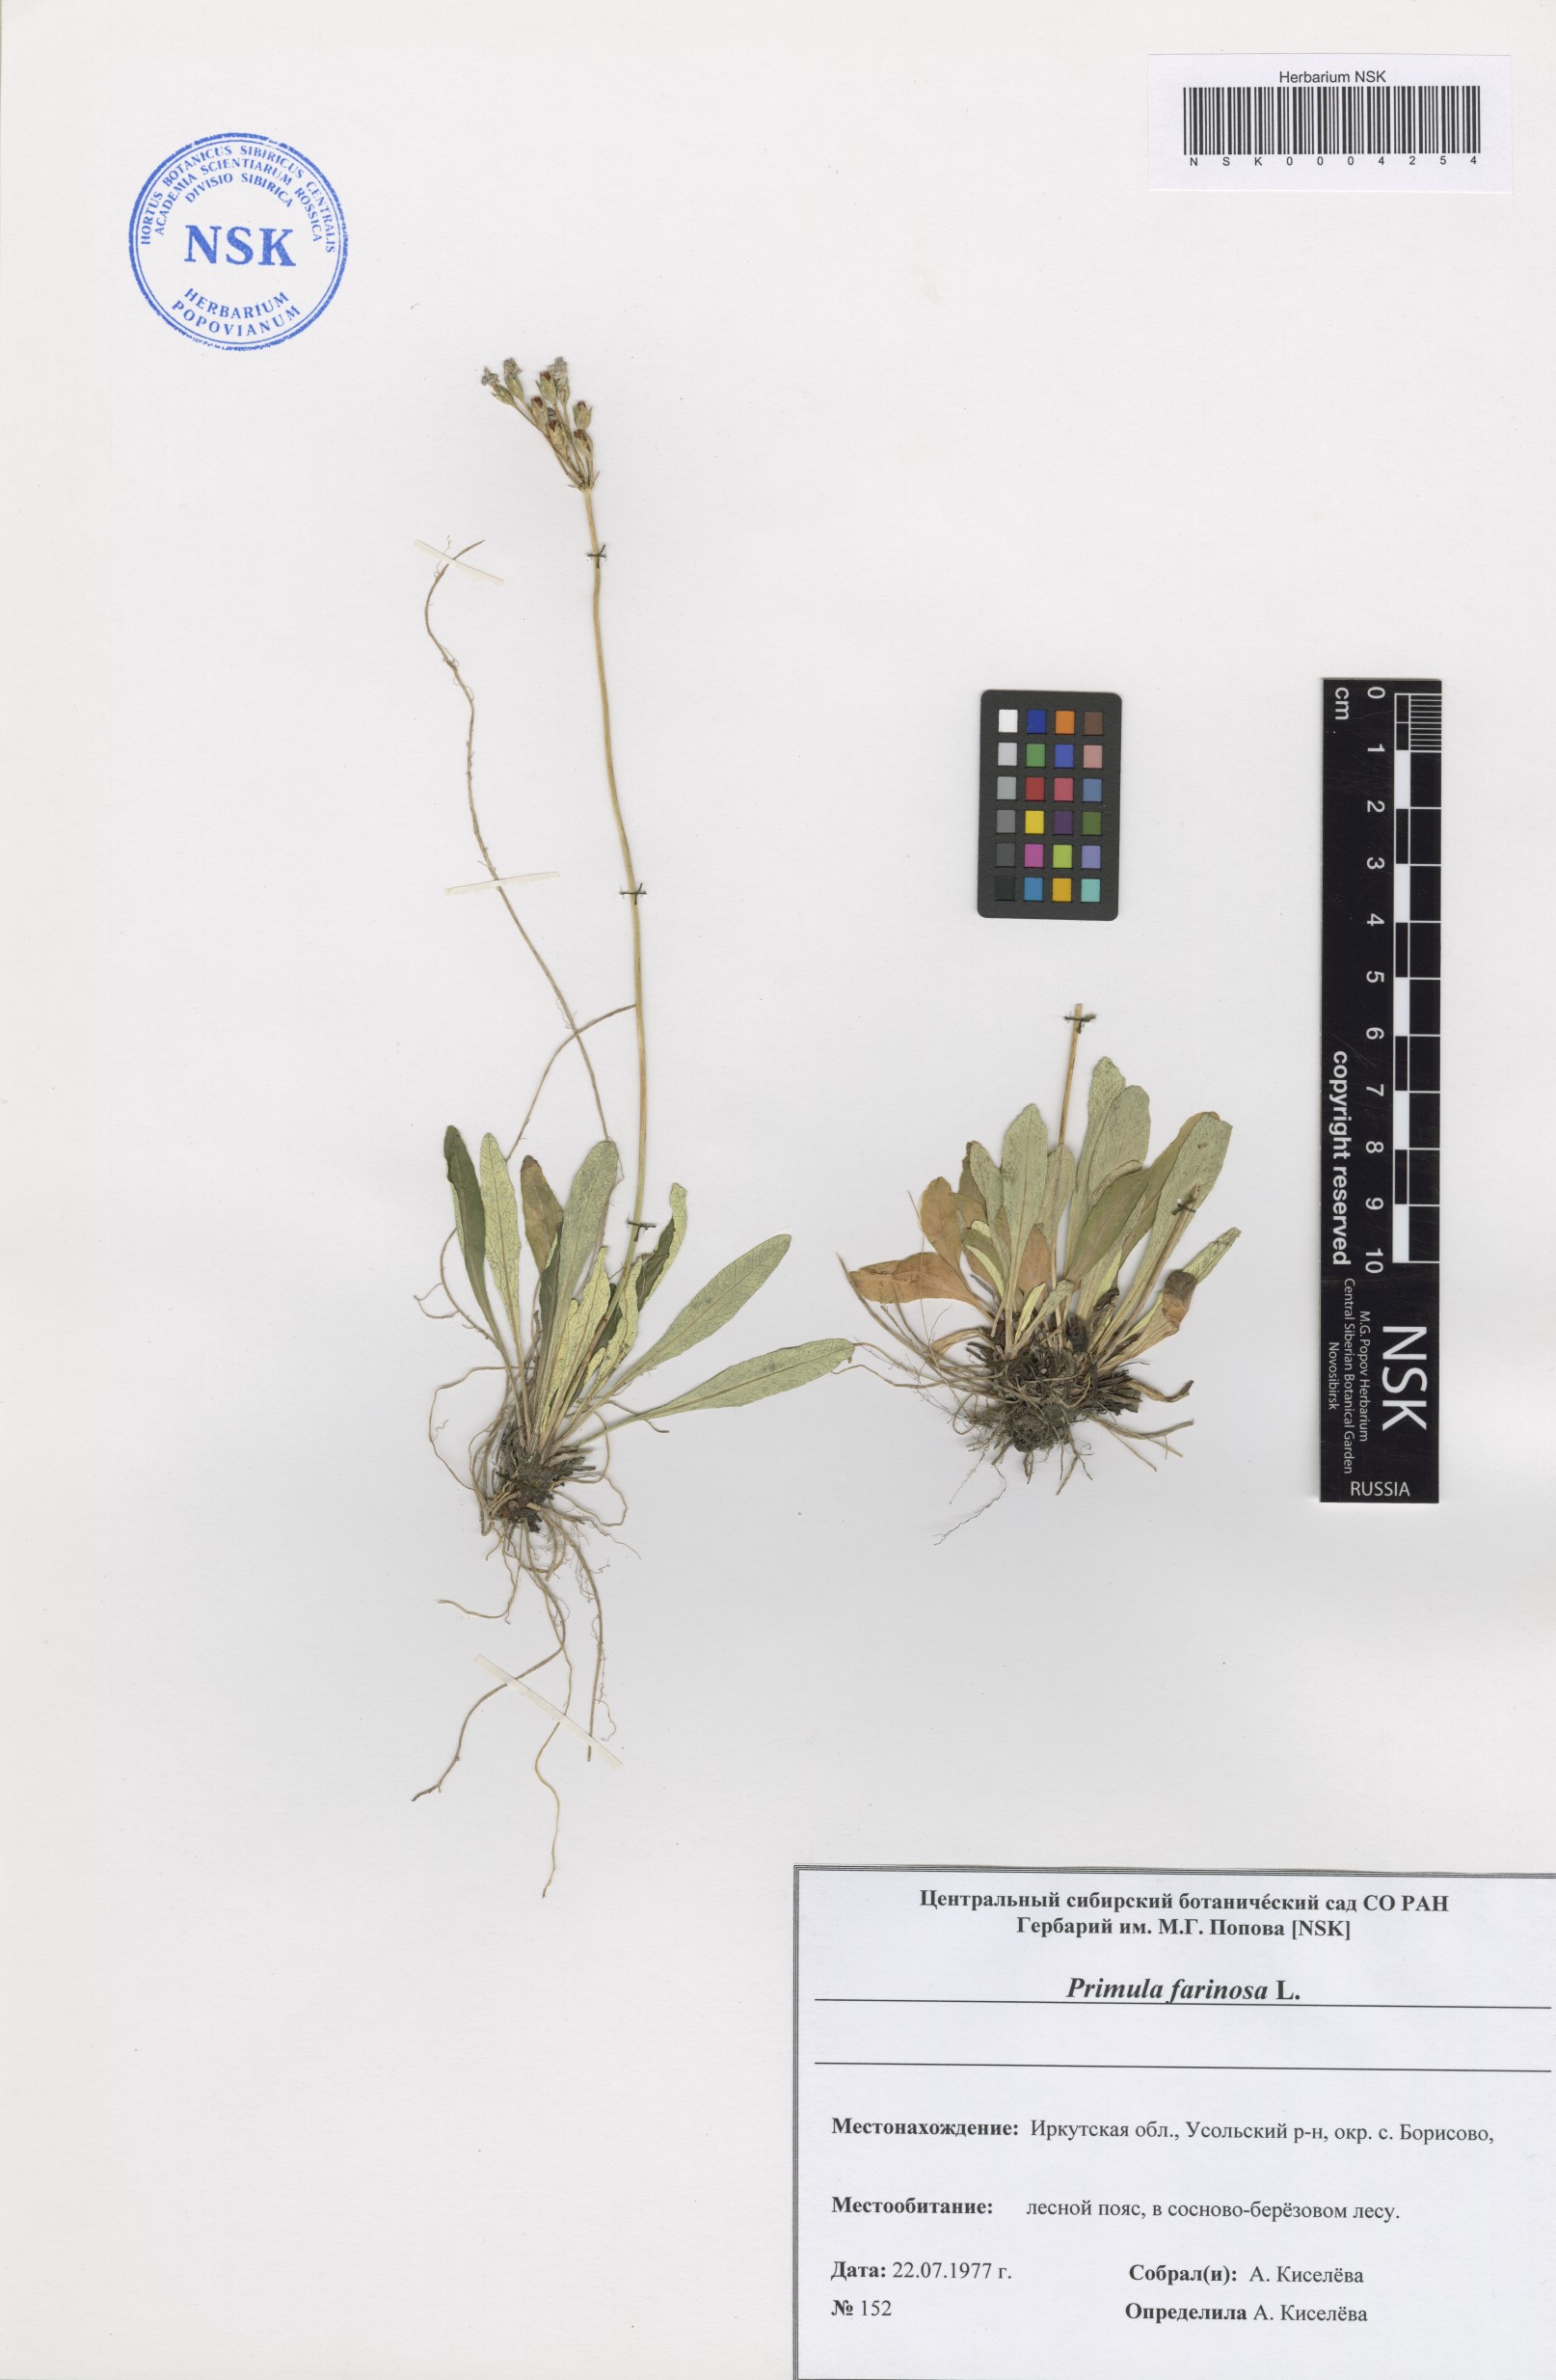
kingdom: Plantae
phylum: Tracheophyta
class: Magnoliopsida
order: Ericales
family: Primulaceae
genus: Primula
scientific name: Primula farinosa
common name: Bird's-eye primrose
